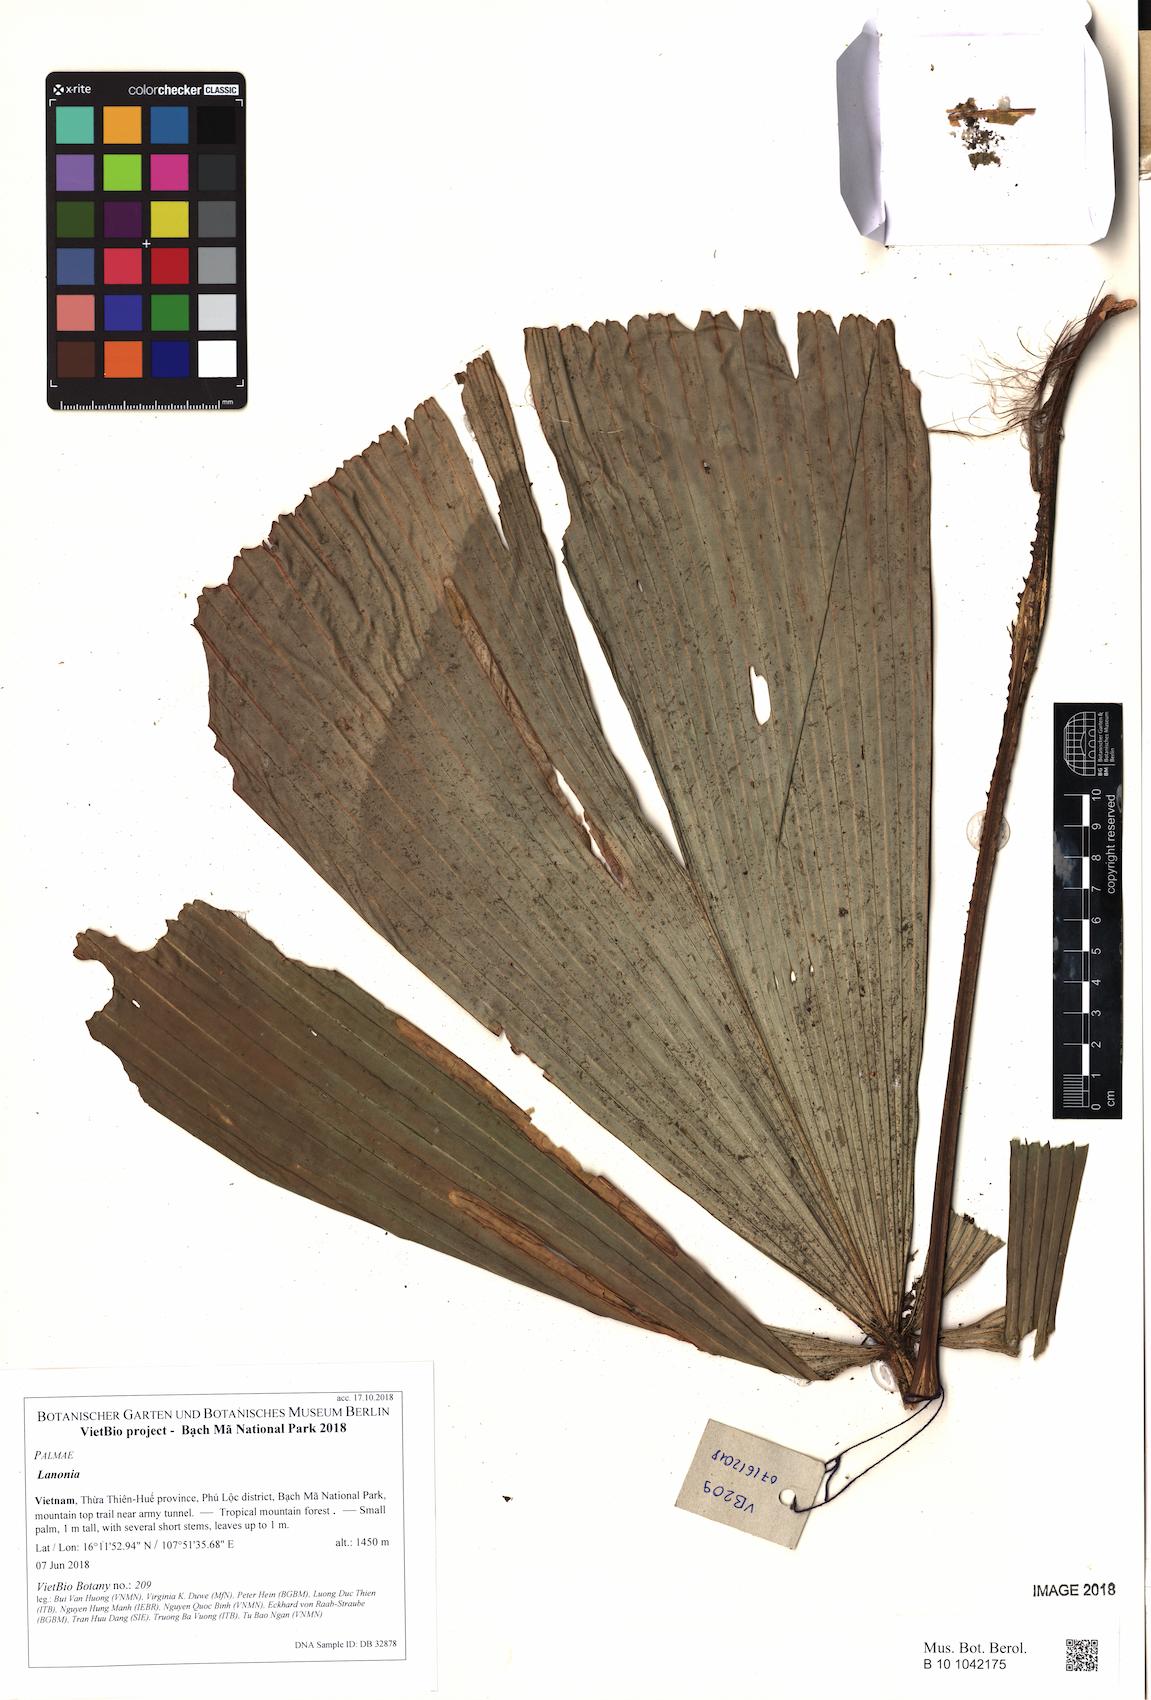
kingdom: Plantae
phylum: Tracheophyta
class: Liliopsida
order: Arecales
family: Arecaceae
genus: Lanonia
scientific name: Lanonia
